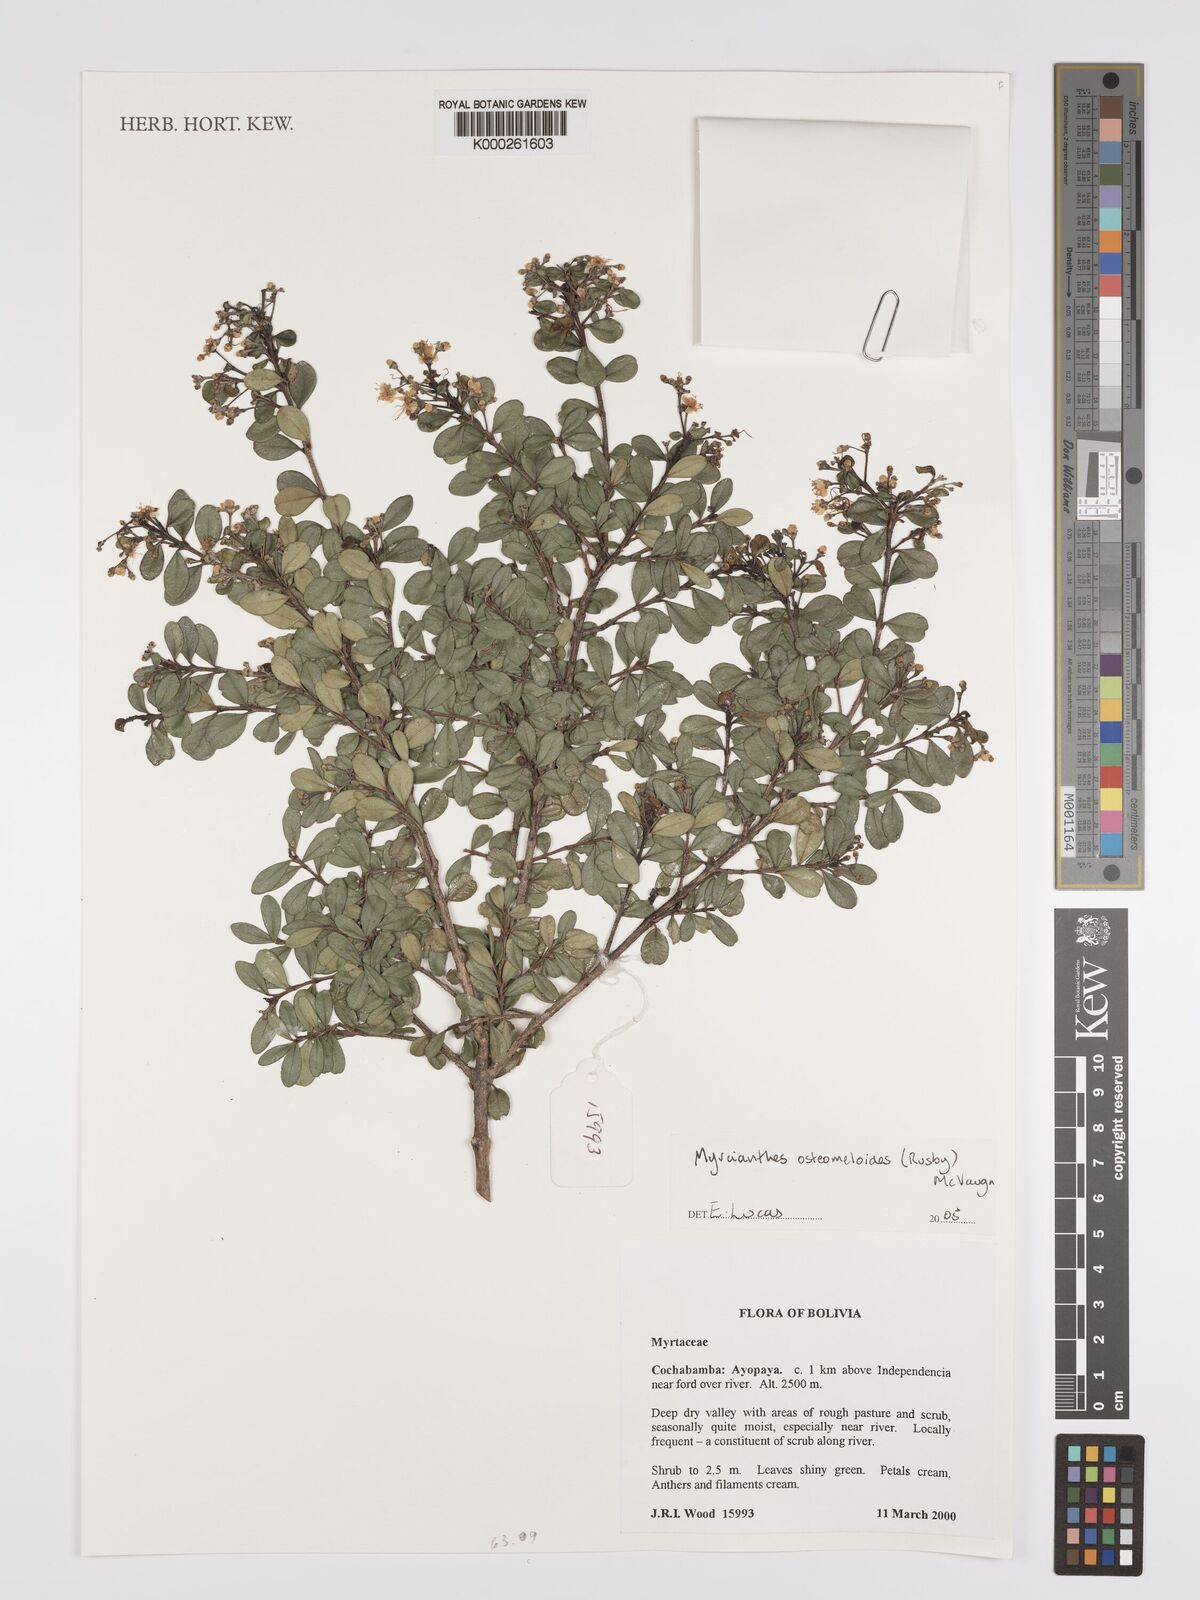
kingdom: Plantae
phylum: Tracheophyta
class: Magnoliopsida
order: Myrtales
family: Myrtaceae
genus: Myrcianthes
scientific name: Myrcianthes osteomeloides
